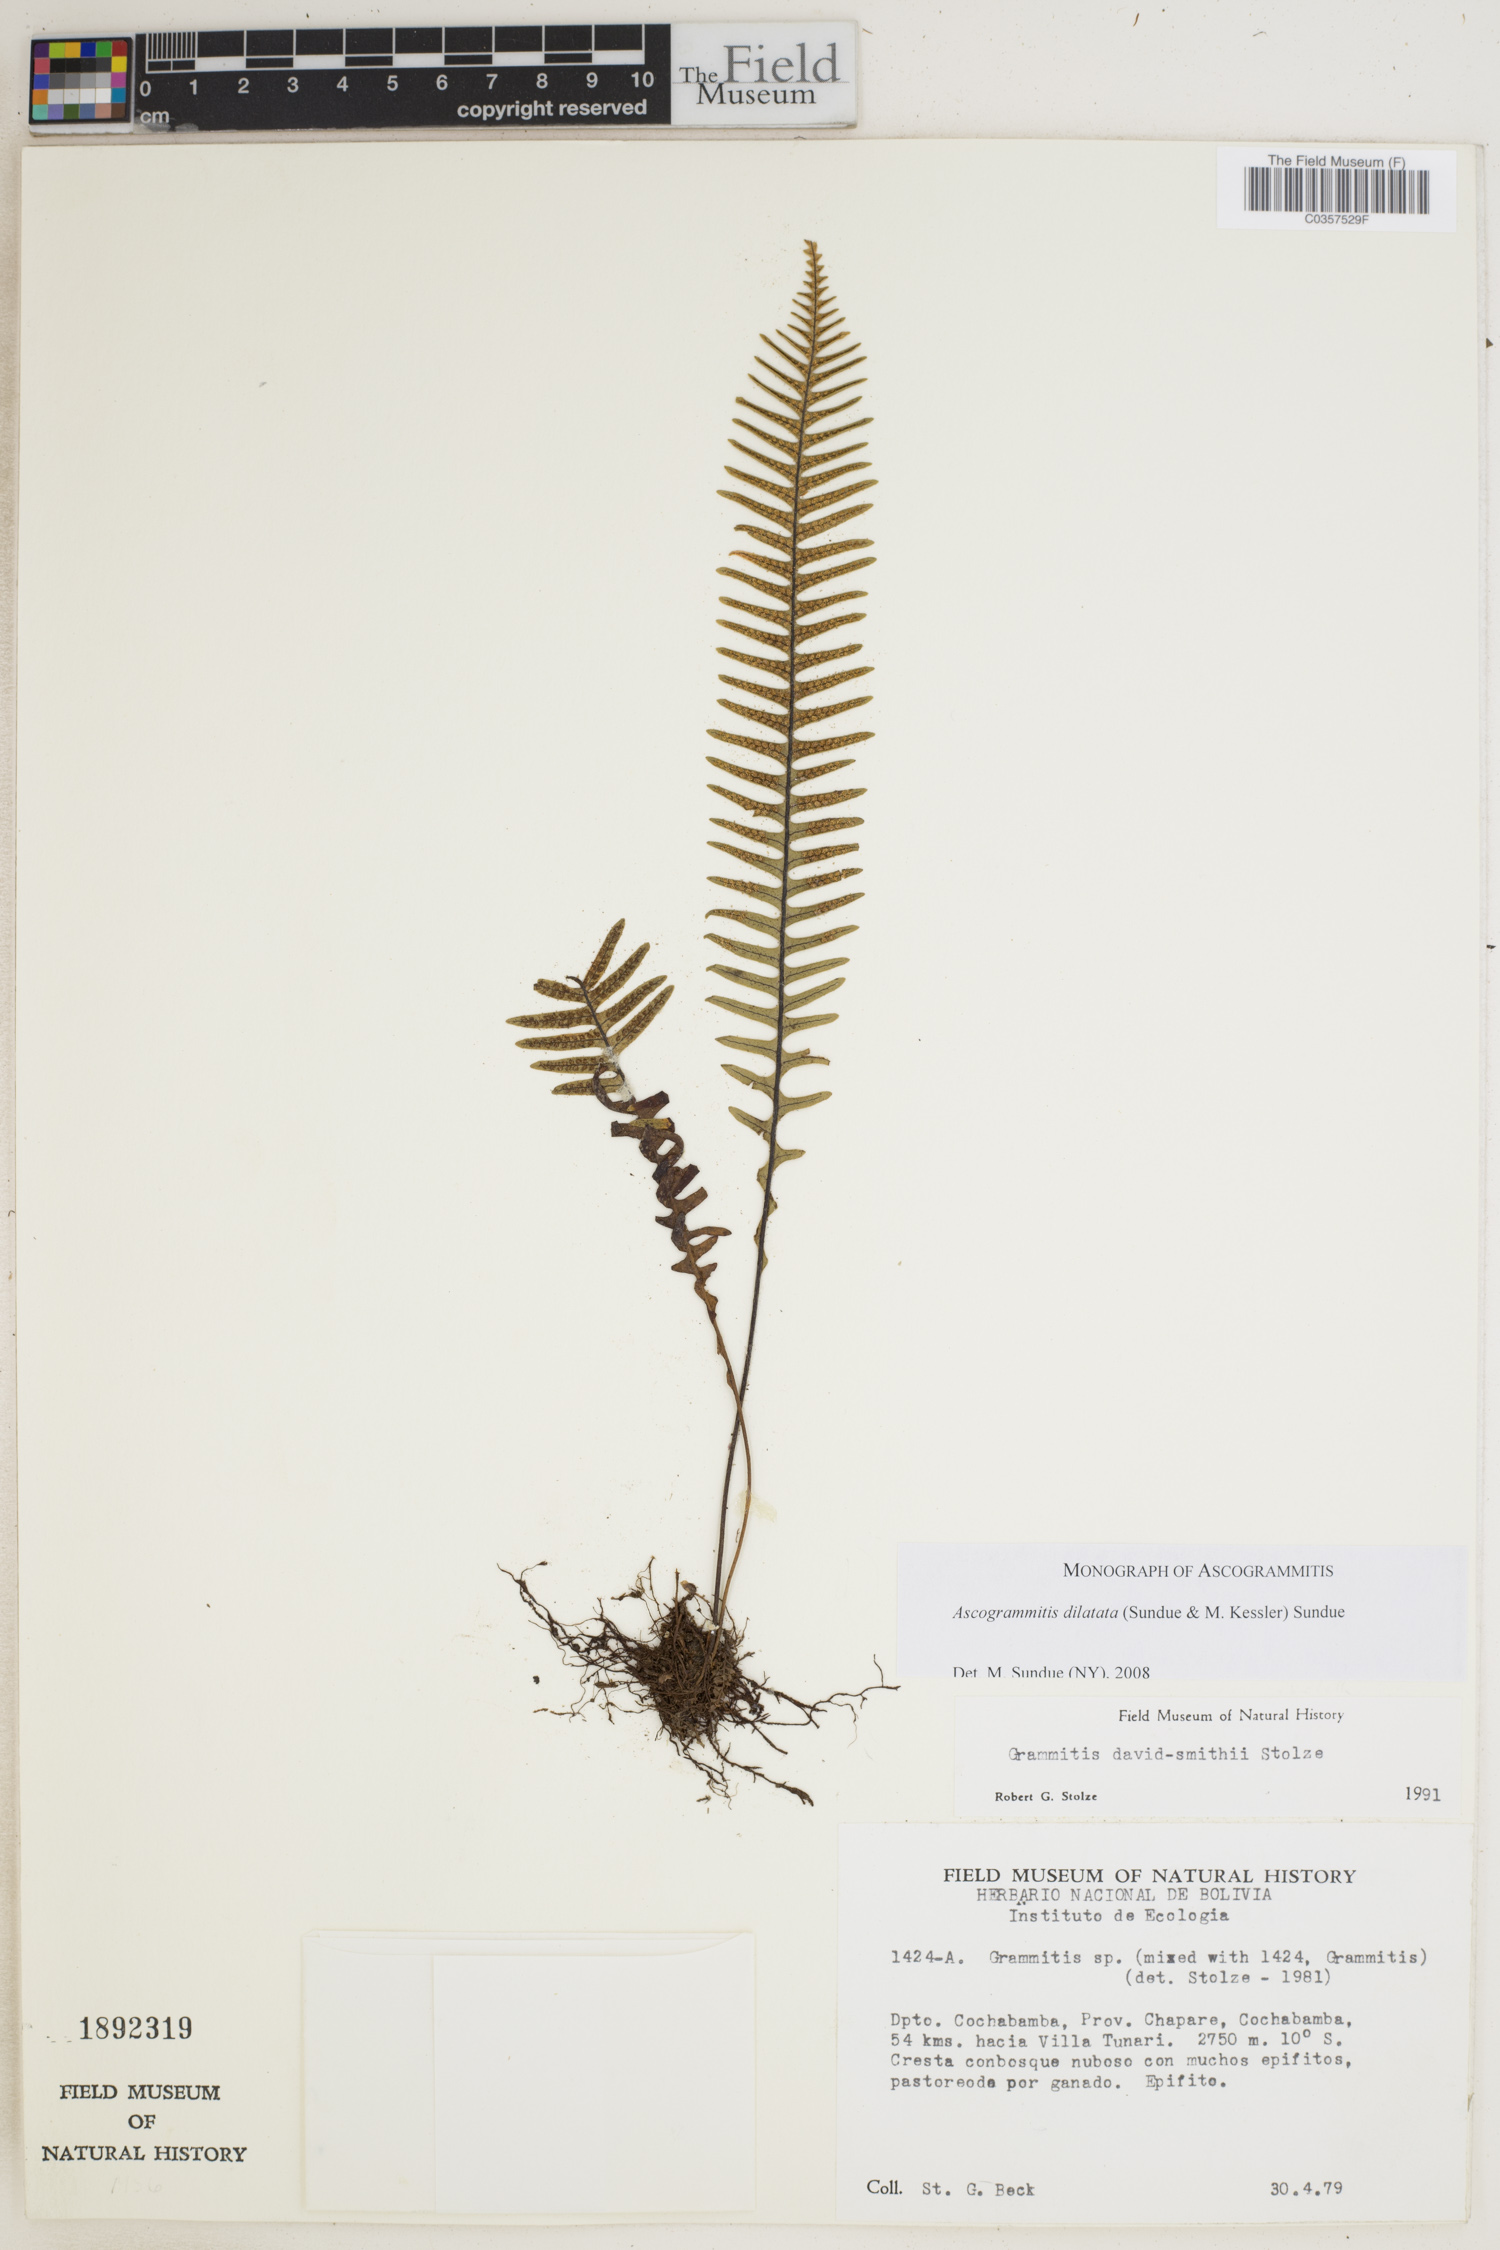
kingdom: Plantae
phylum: Tracheophyta
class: Polypodiopsida
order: Polypodiales
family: Polypodiaceae
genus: Ascogrammitis
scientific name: Ascogrammitis dilatata
